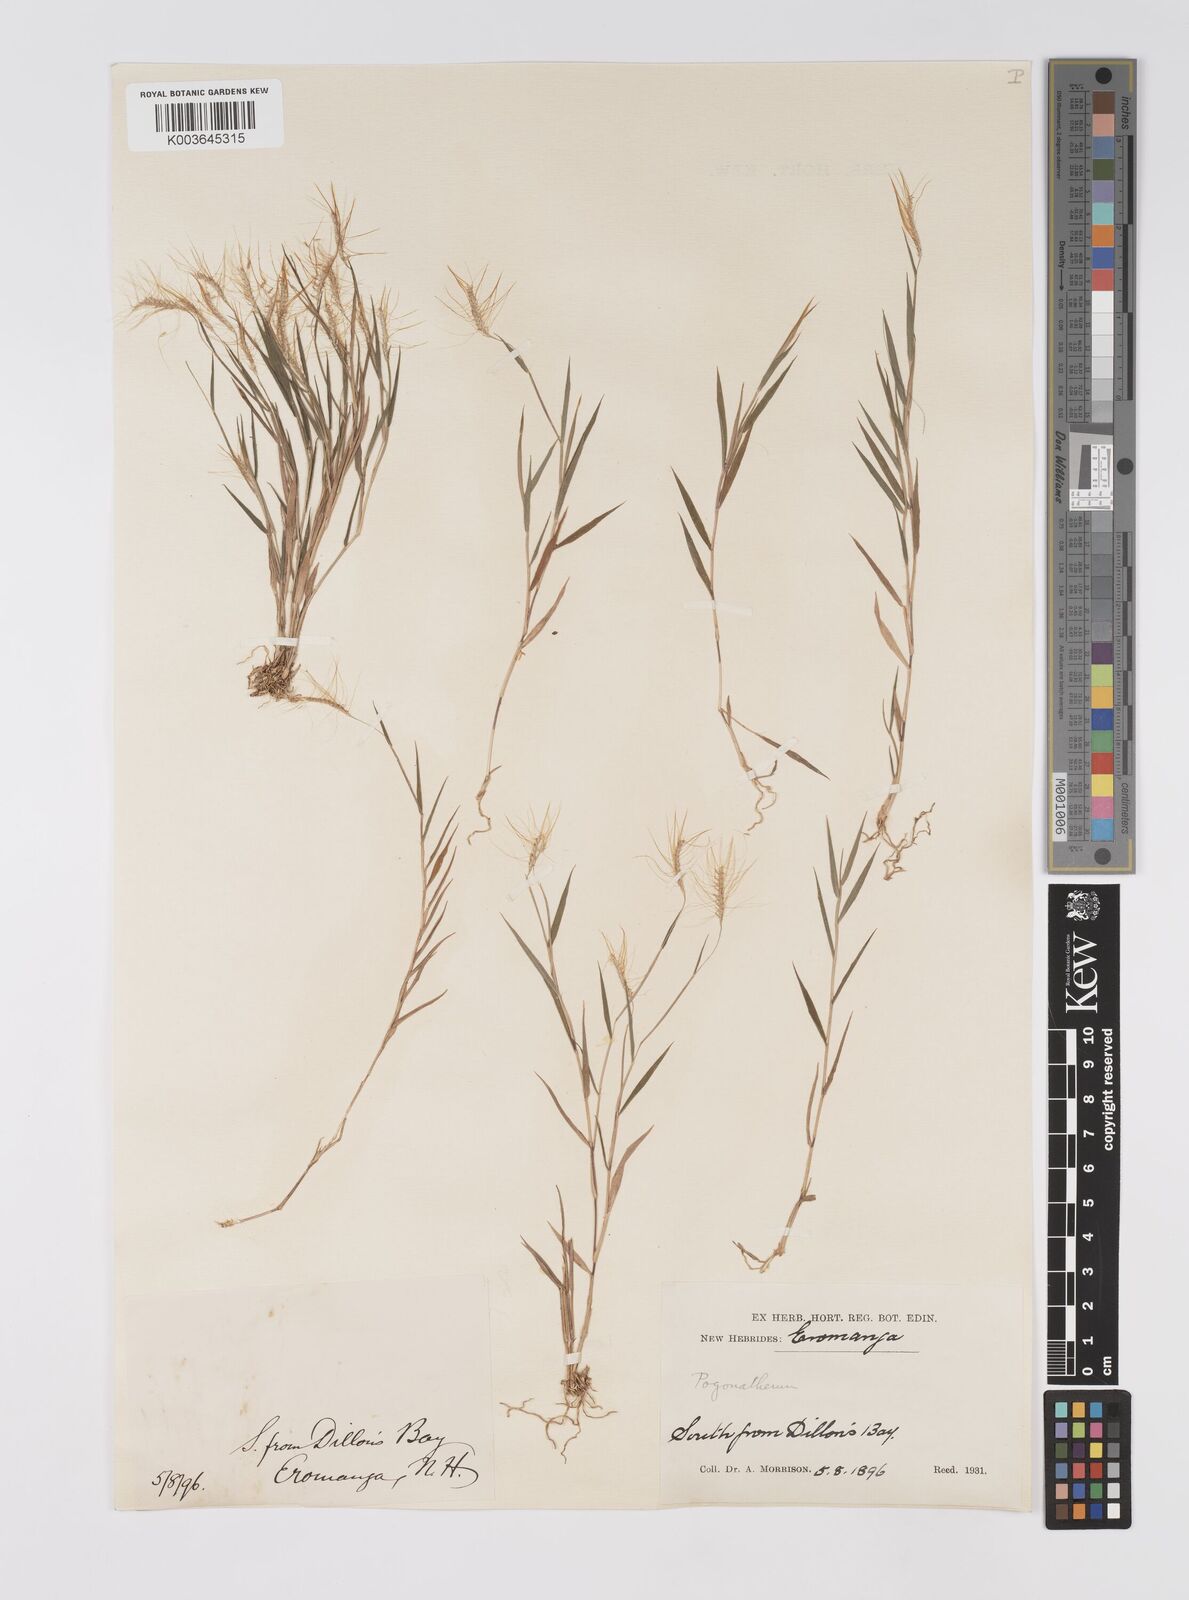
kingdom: Plantae
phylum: Tracheophyta
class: Liliopsida
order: Poales
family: Poaceae
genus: Pogonatherum
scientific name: Pogonatherum crinitum
